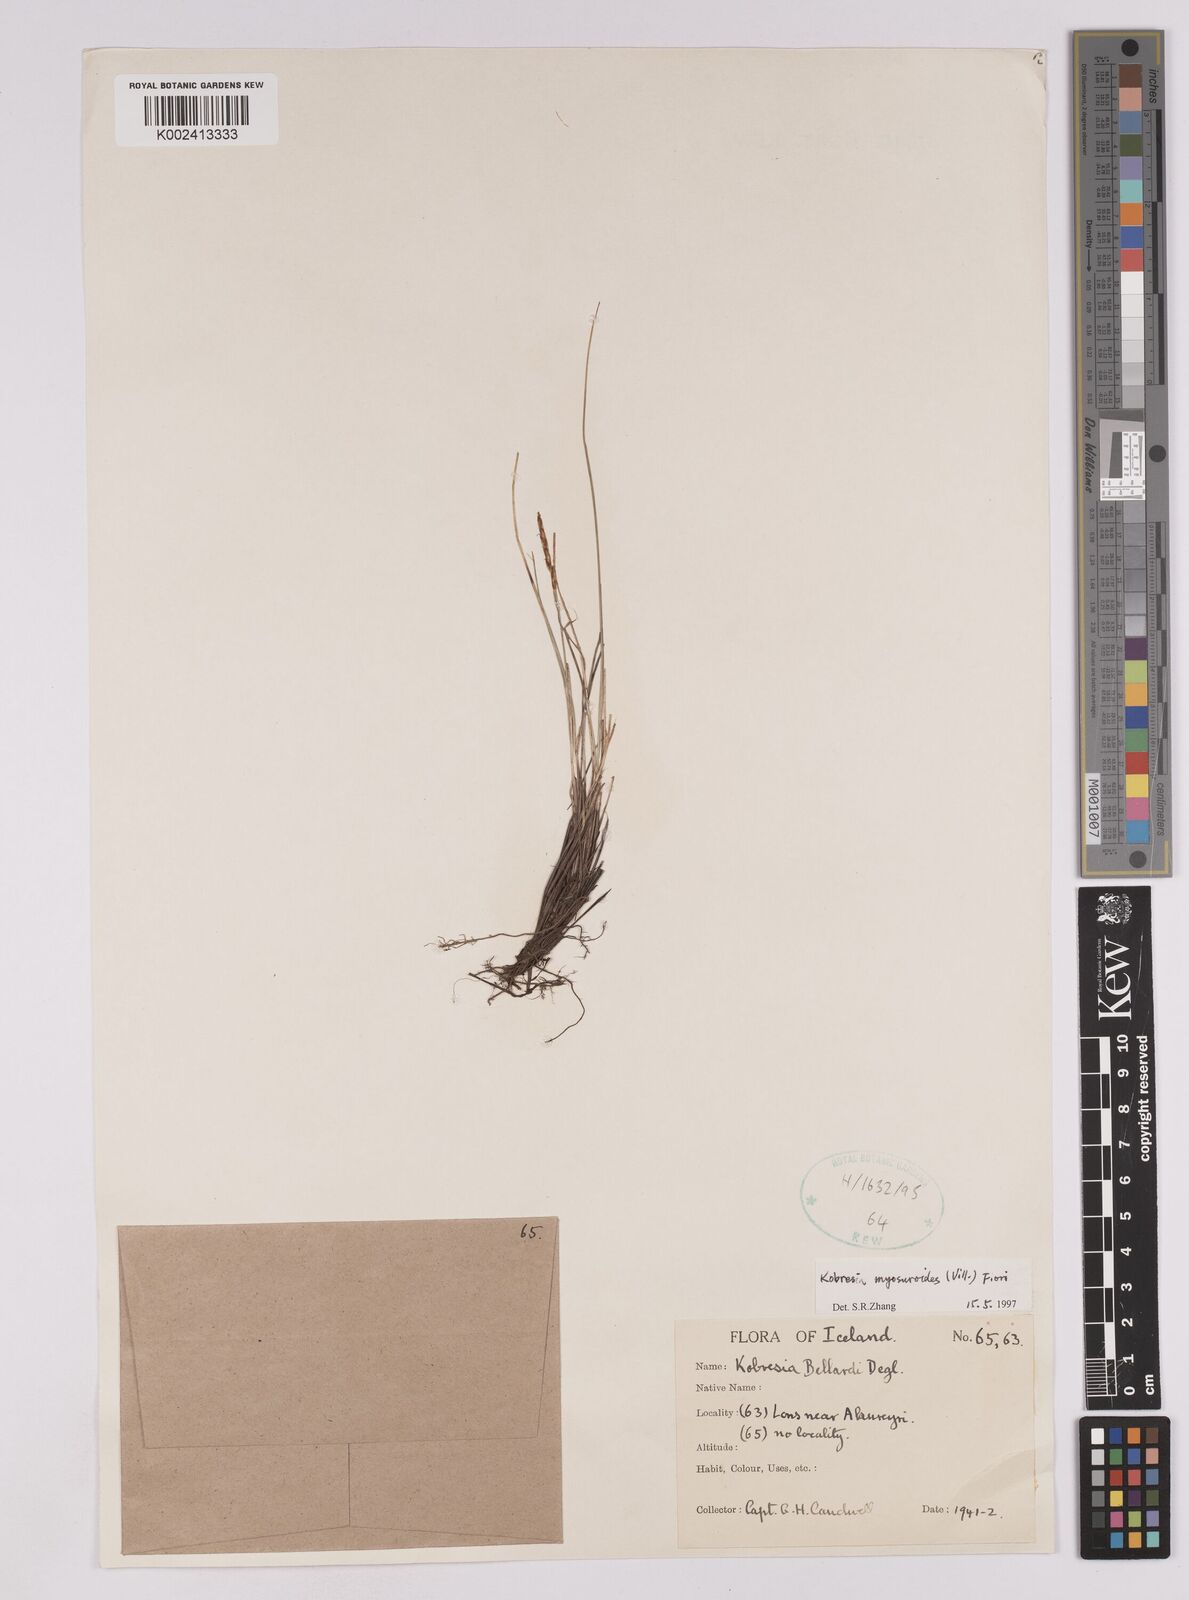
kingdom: Plantae
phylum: Tracheophyta
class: Liliopsida
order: Poales
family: Cyperaceae
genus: Carex
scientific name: Carex myosuroides
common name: Bellard's bog sedge
